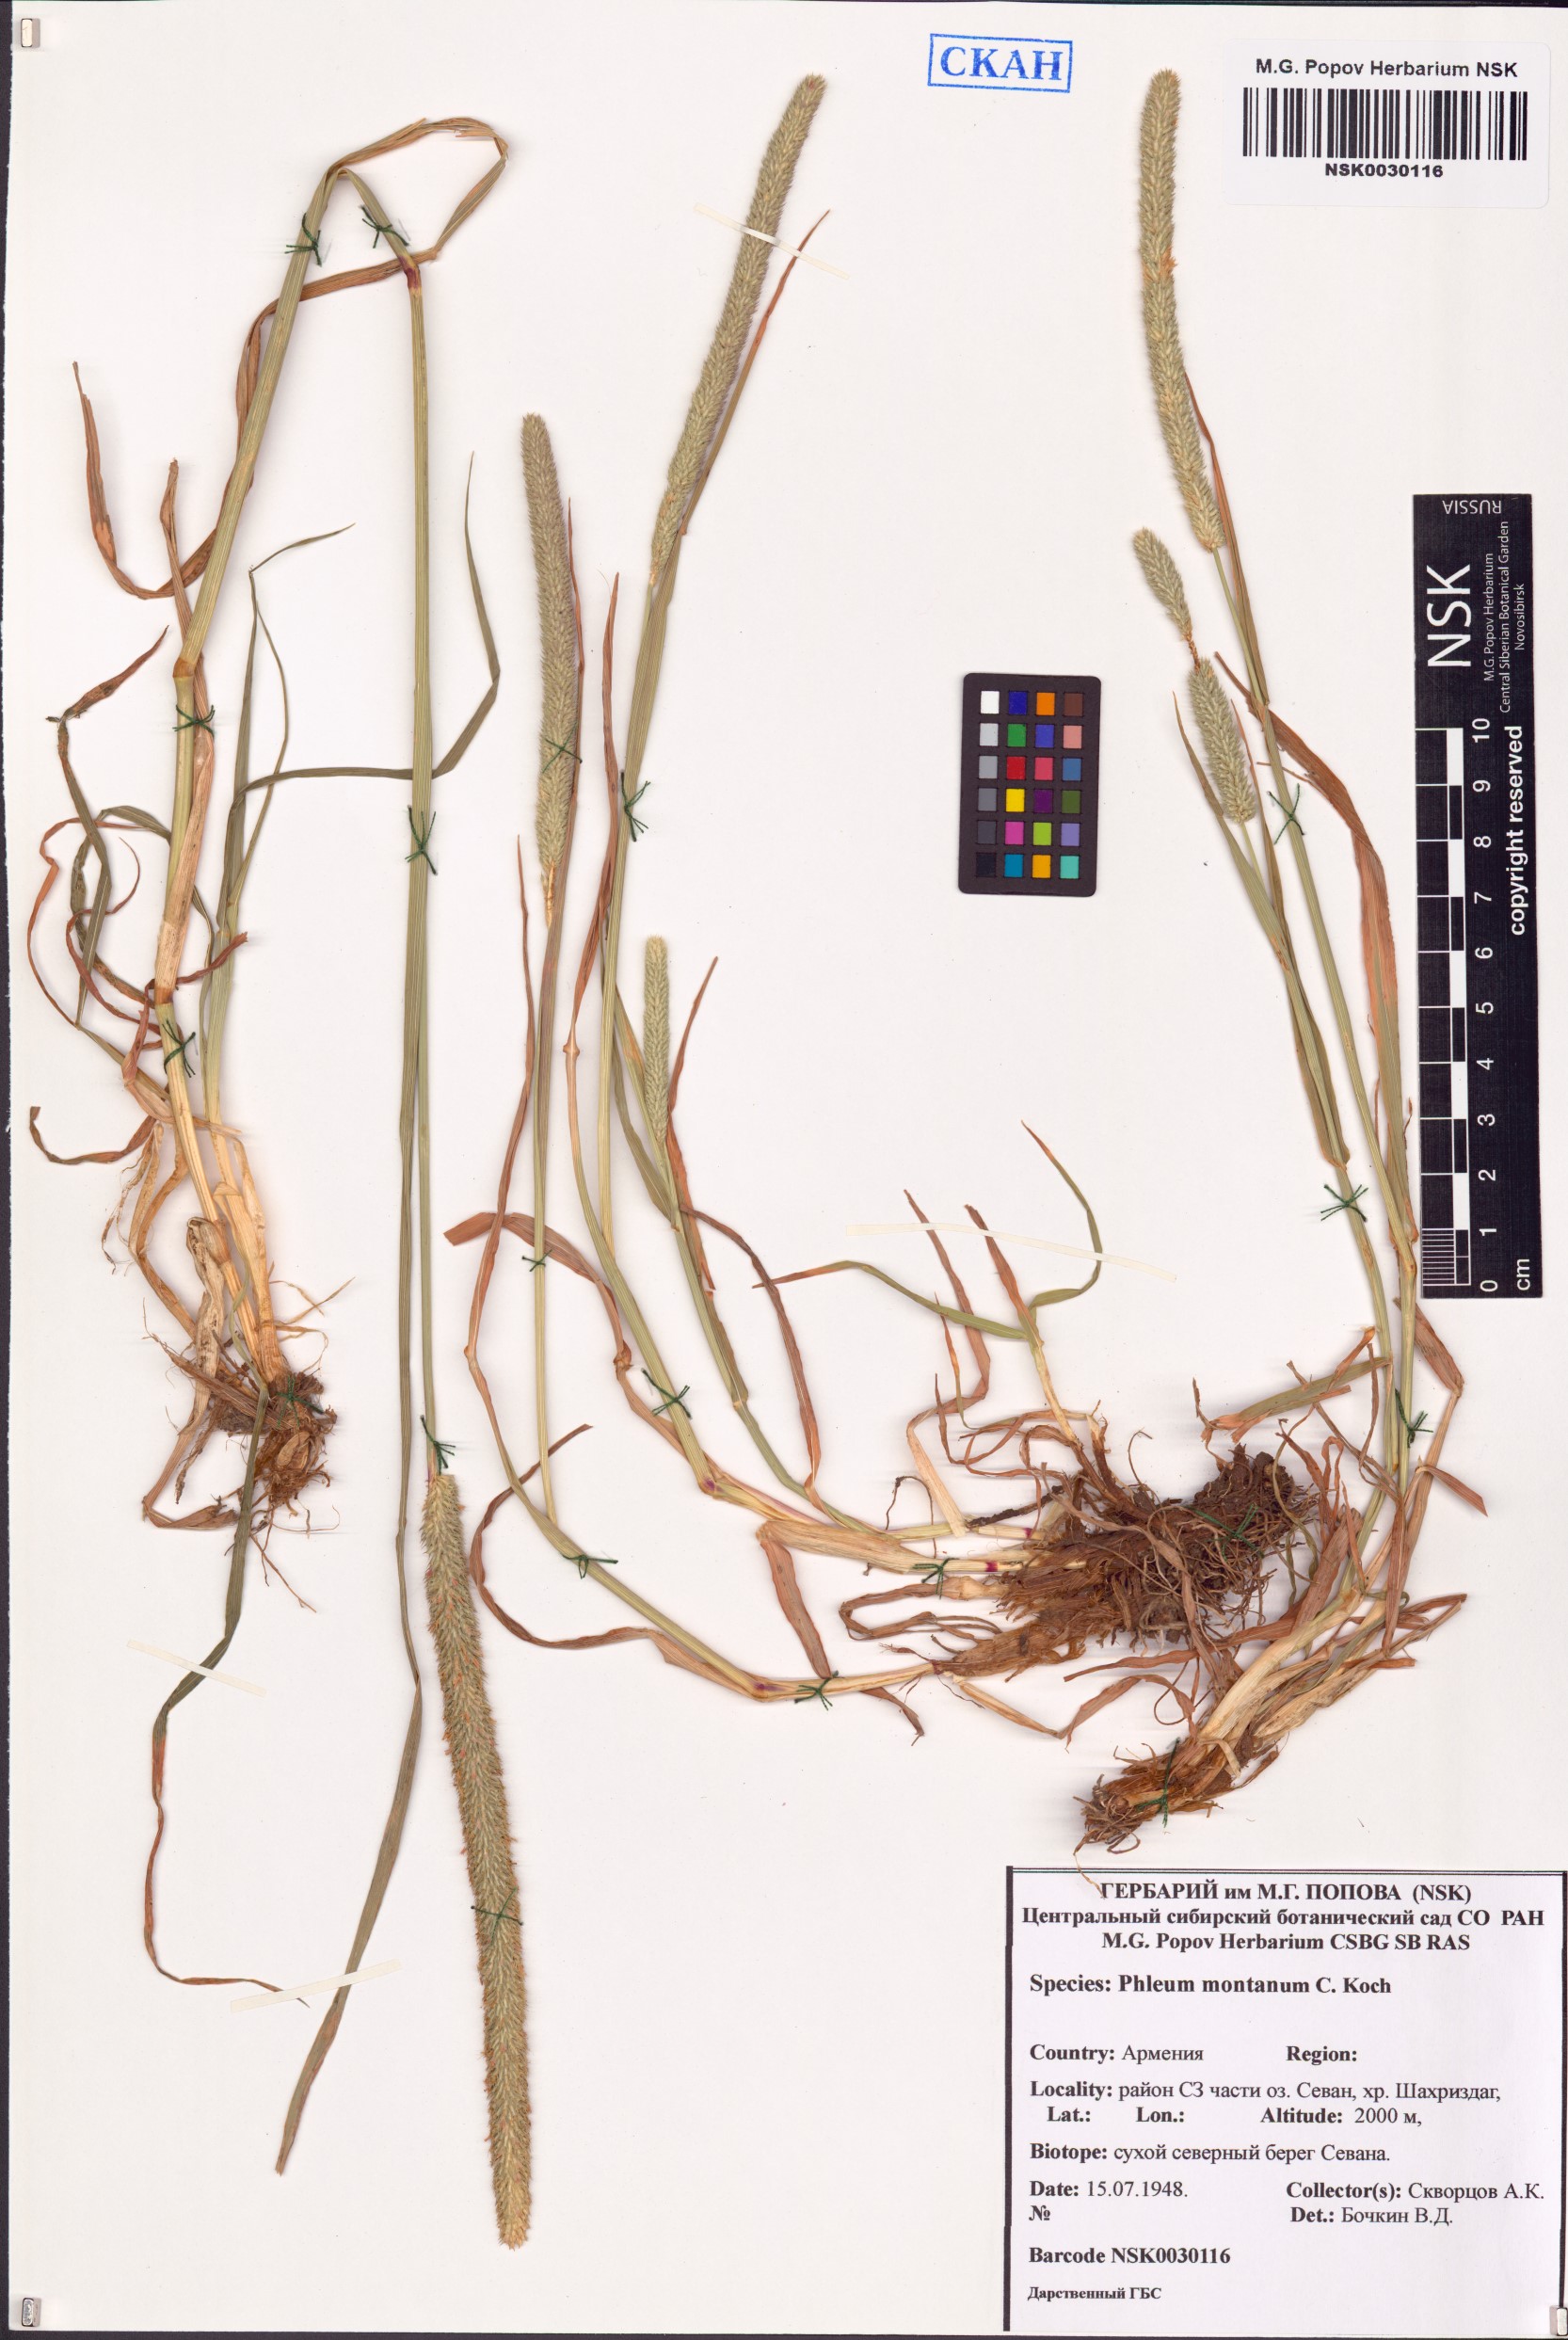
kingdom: Plantae
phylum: Tracheophyta
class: Liliopsida
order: Poales
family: Poaceae
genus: Phleum
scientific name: Phleum montanum
